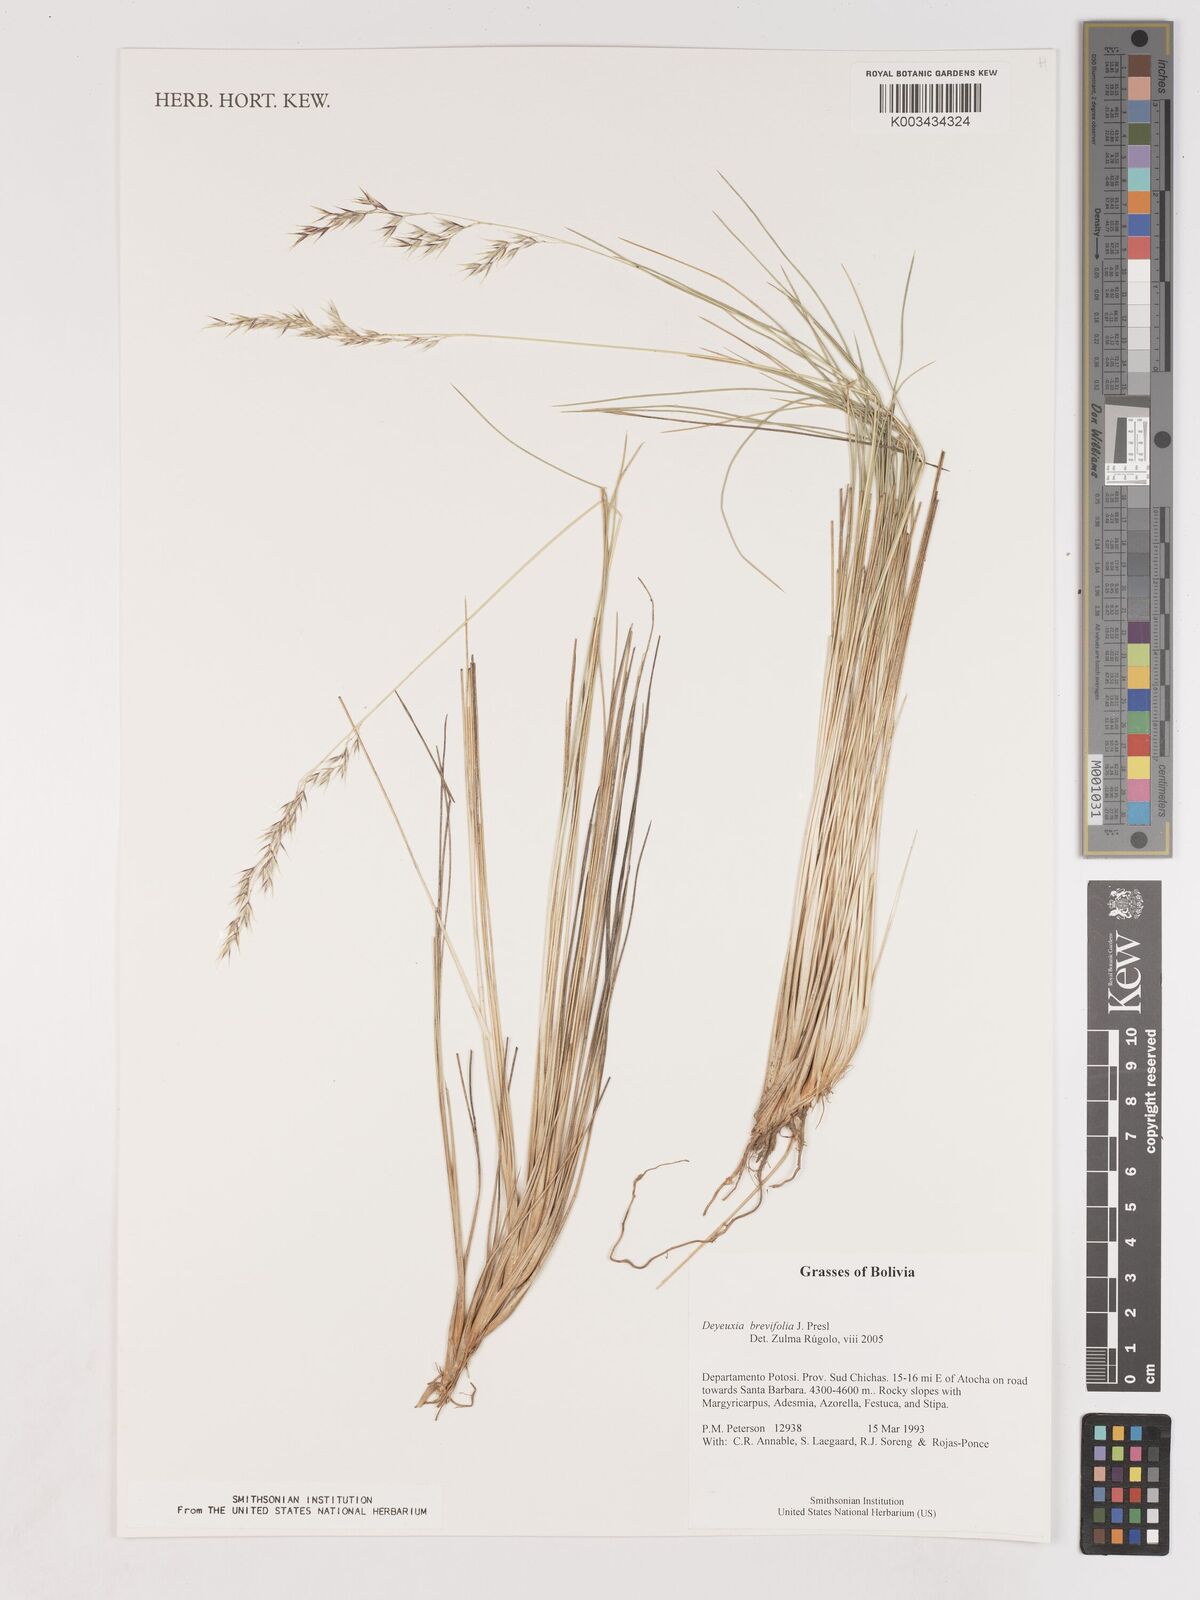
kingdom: Plantae
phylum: Tracheophyta
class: Liliopsida
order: Poales
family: Poaceae
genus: Cinnagrostis
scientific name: Cinnagrostis brevifolia
